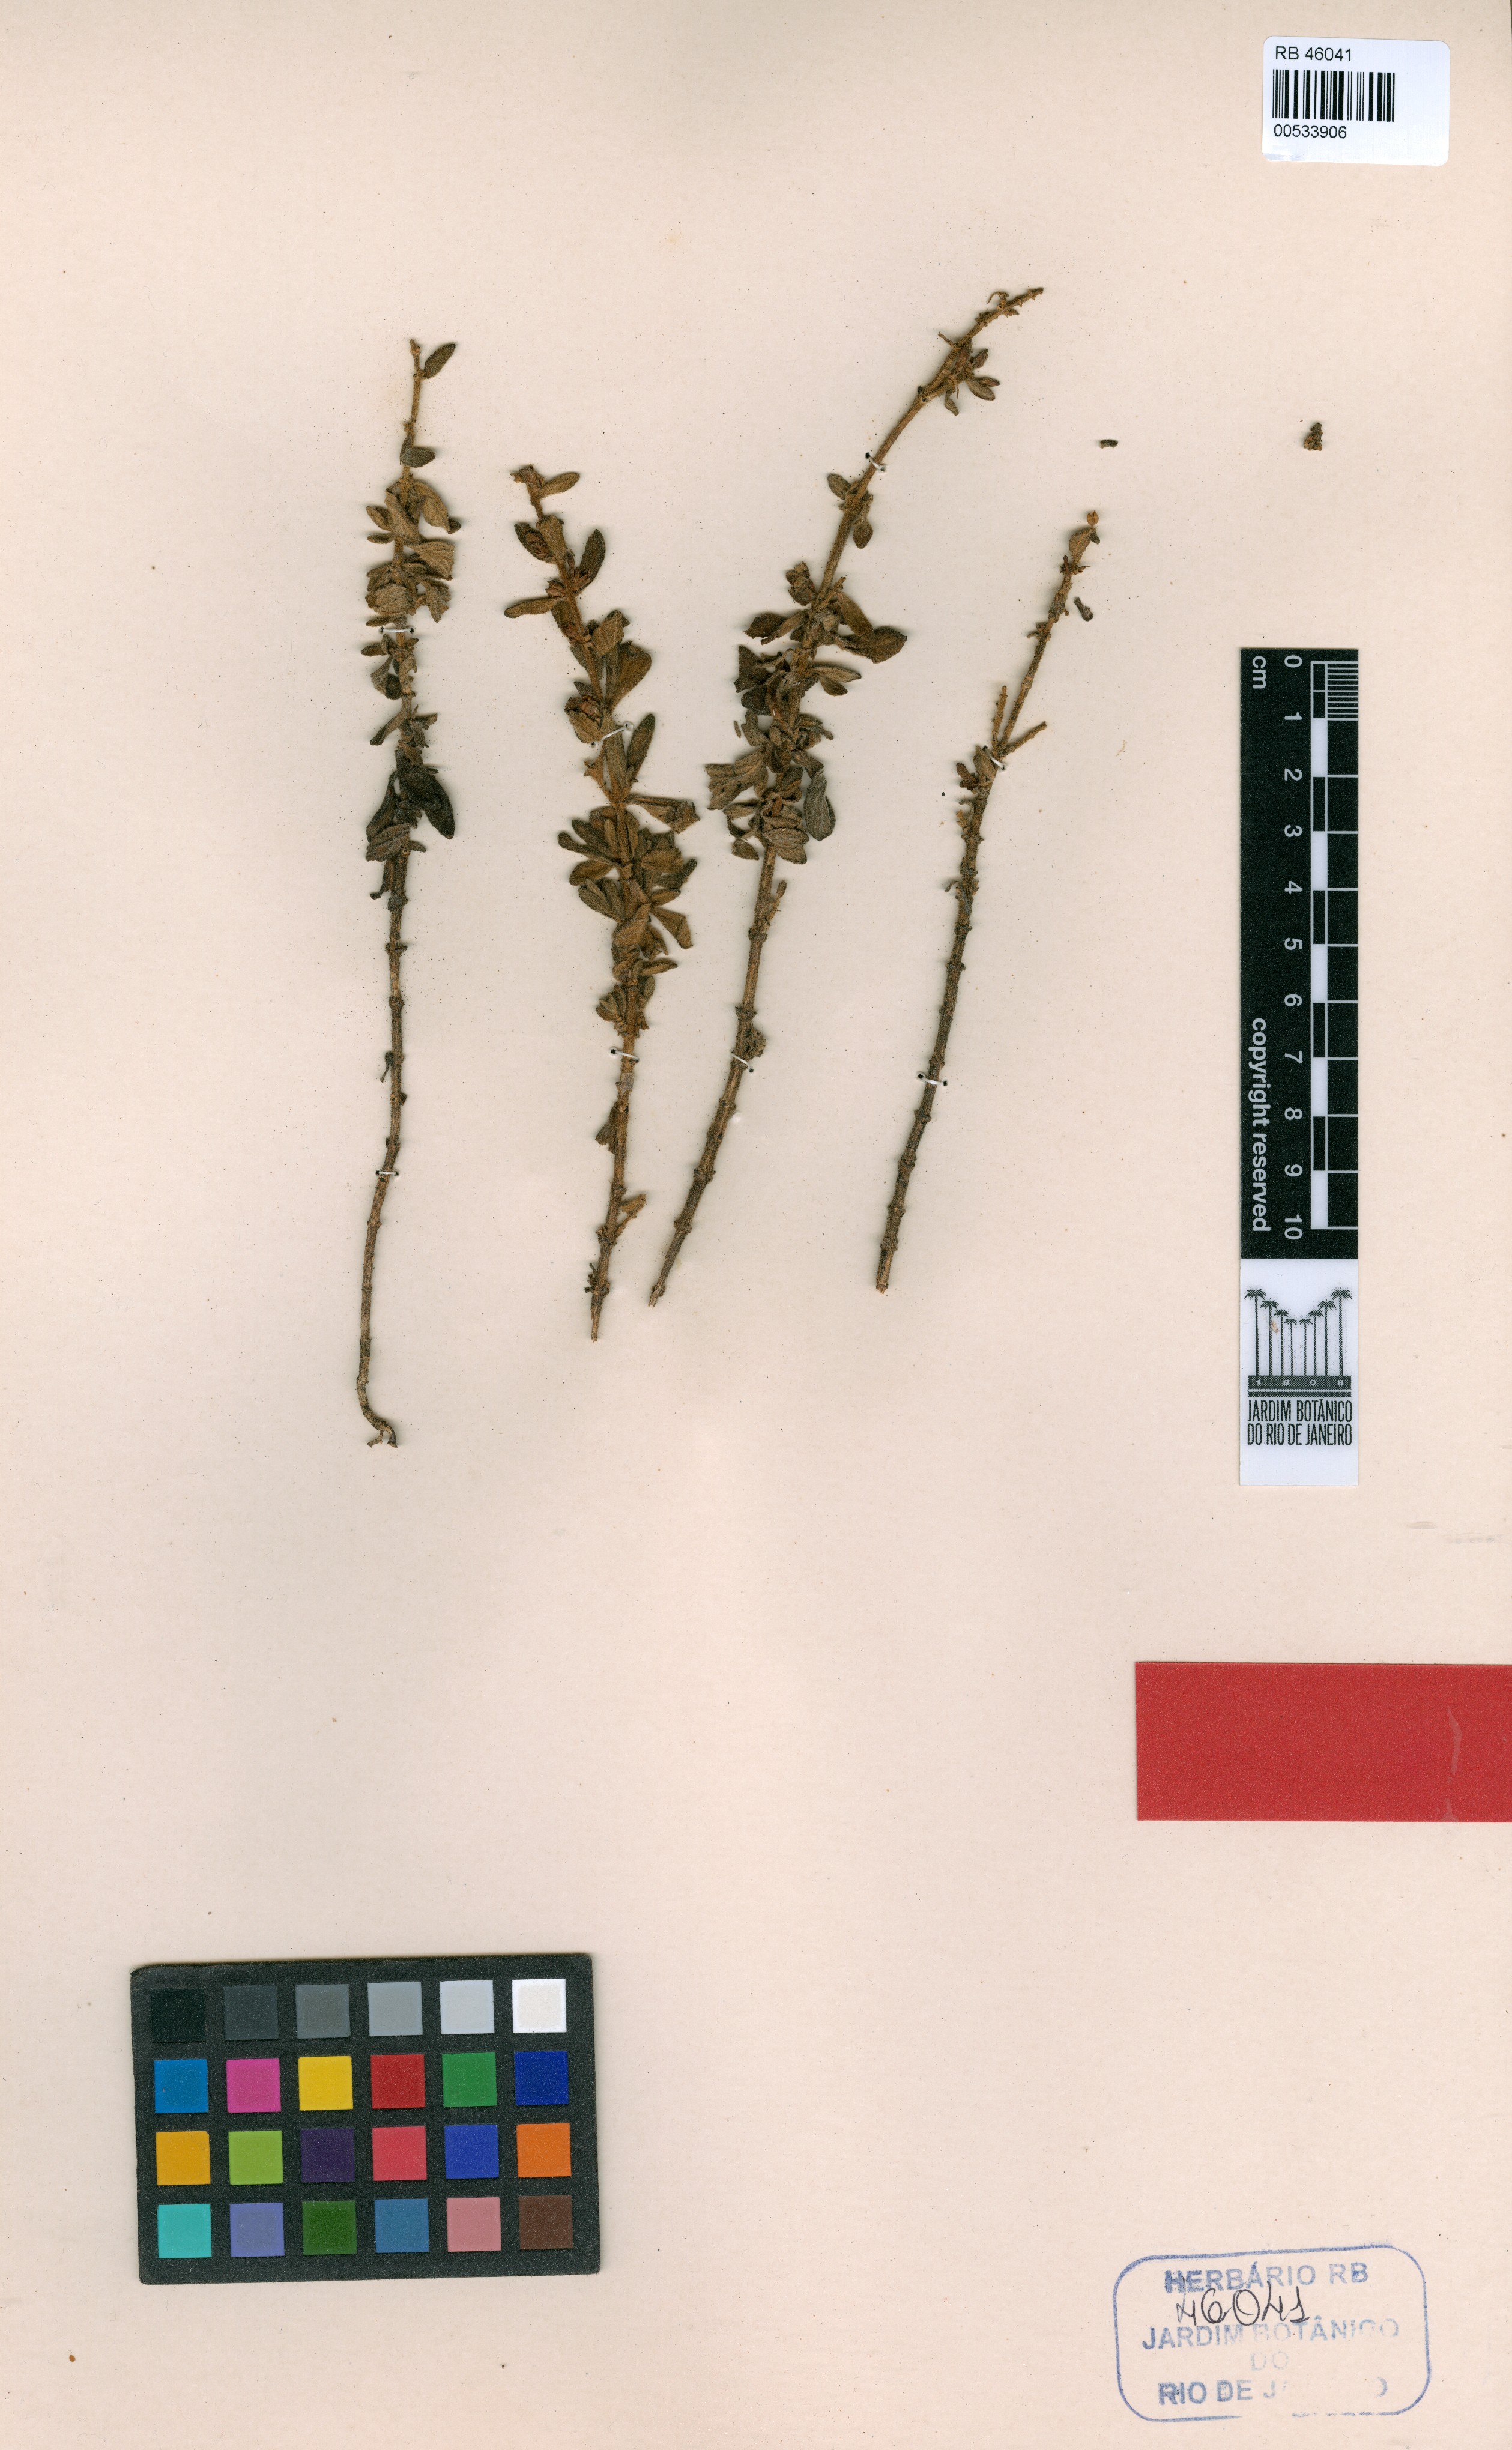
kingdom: Plantae
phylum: Tracheophyta
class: Magnoliopsida
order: Lamiales
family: Plantaginaceae
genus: Matourea
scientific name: Matourea caparaoensis
